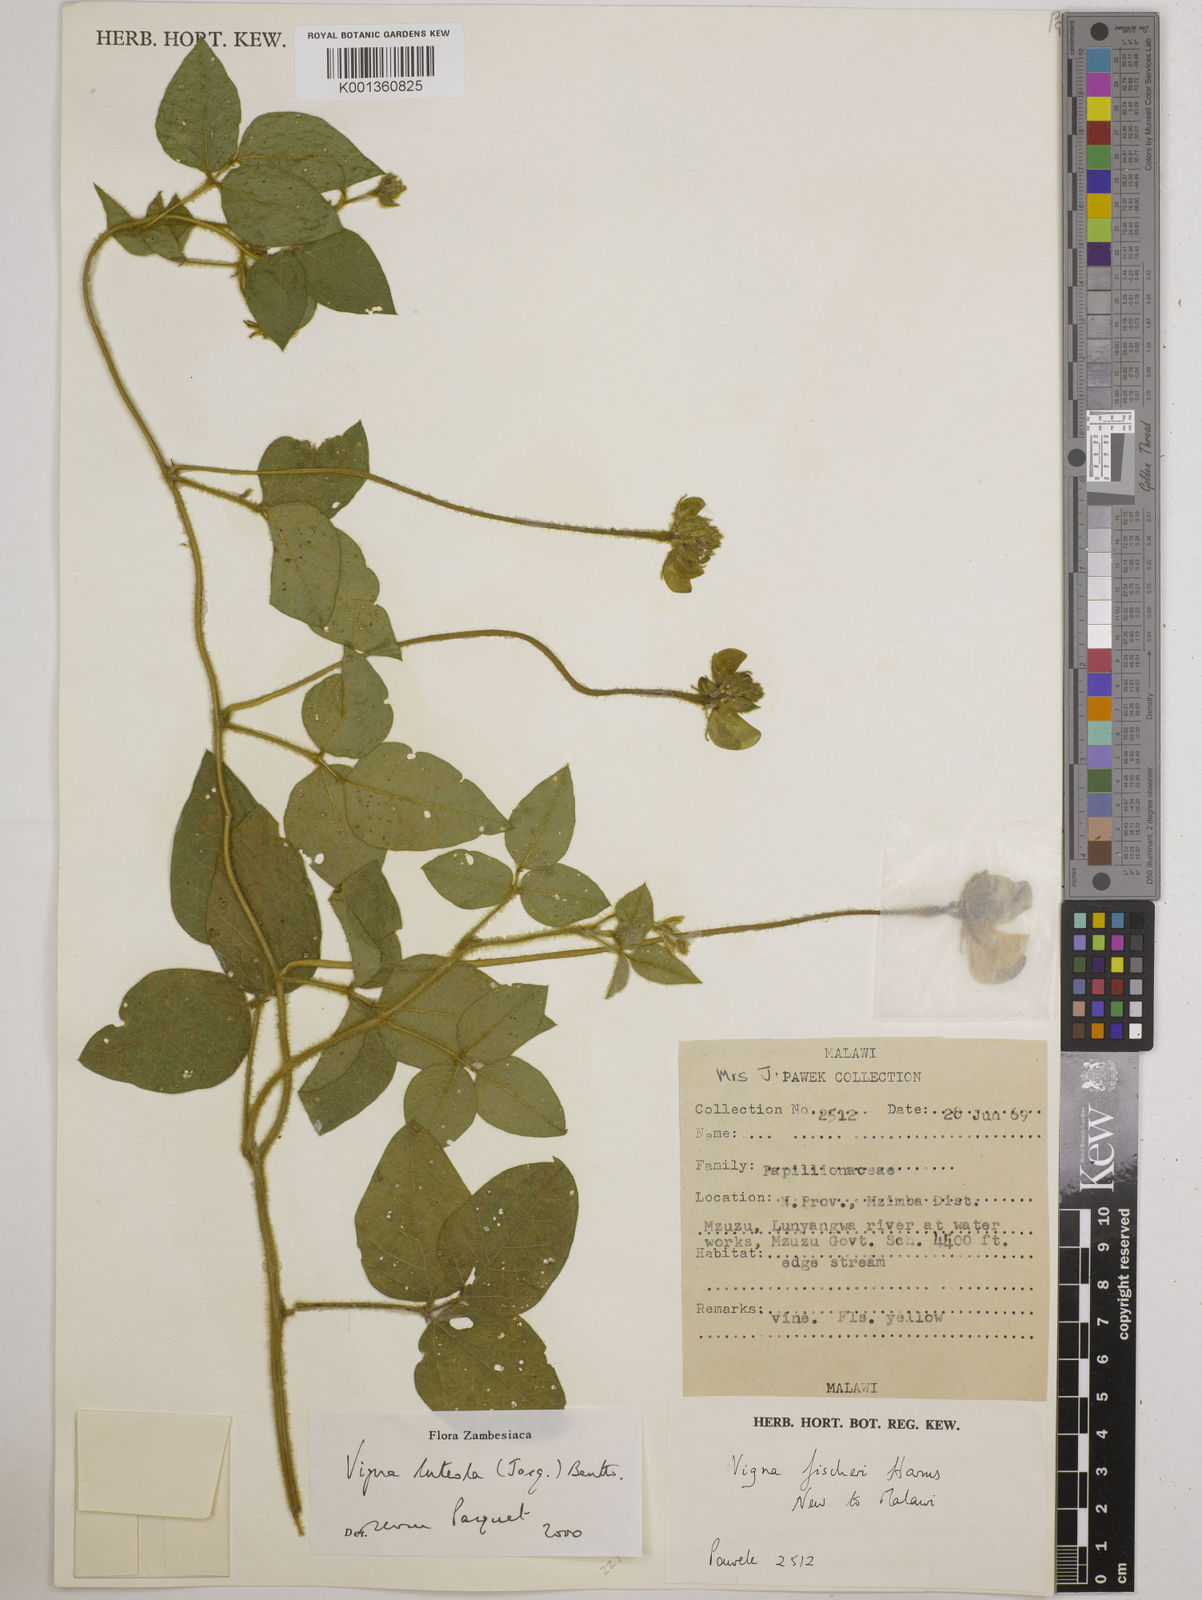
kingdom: Plantae
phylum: Tracheophyta
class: Magnoliopsida
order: Fabales
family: Fabaceae
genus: Vigna
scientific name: Vigna luteola
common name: Hairypod cowpea
